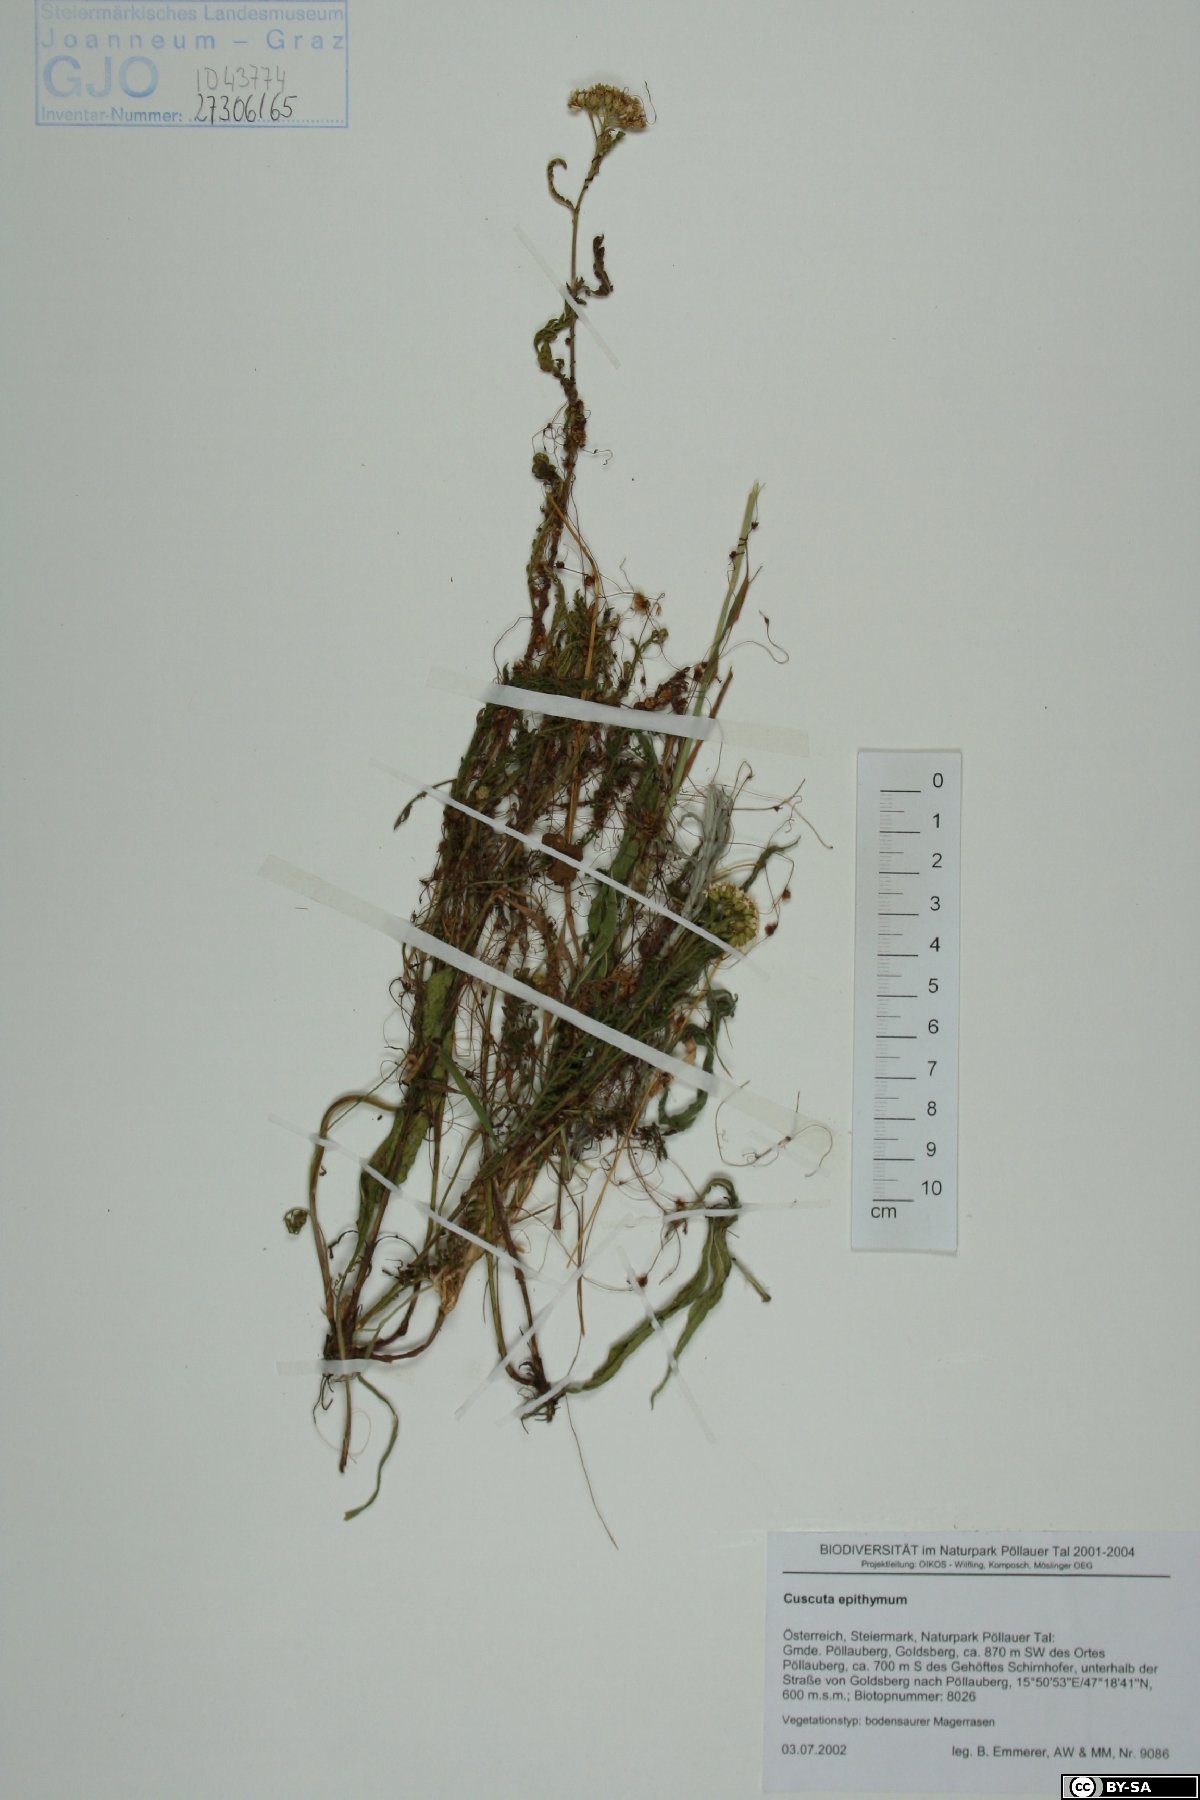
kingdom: Plantae
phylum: Tracheophyta
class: Magnoliopsida
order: Solanales
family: Convolvulaceae
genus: Cuscuta
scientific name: Cuscuta epithymum
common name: Clover dodder
